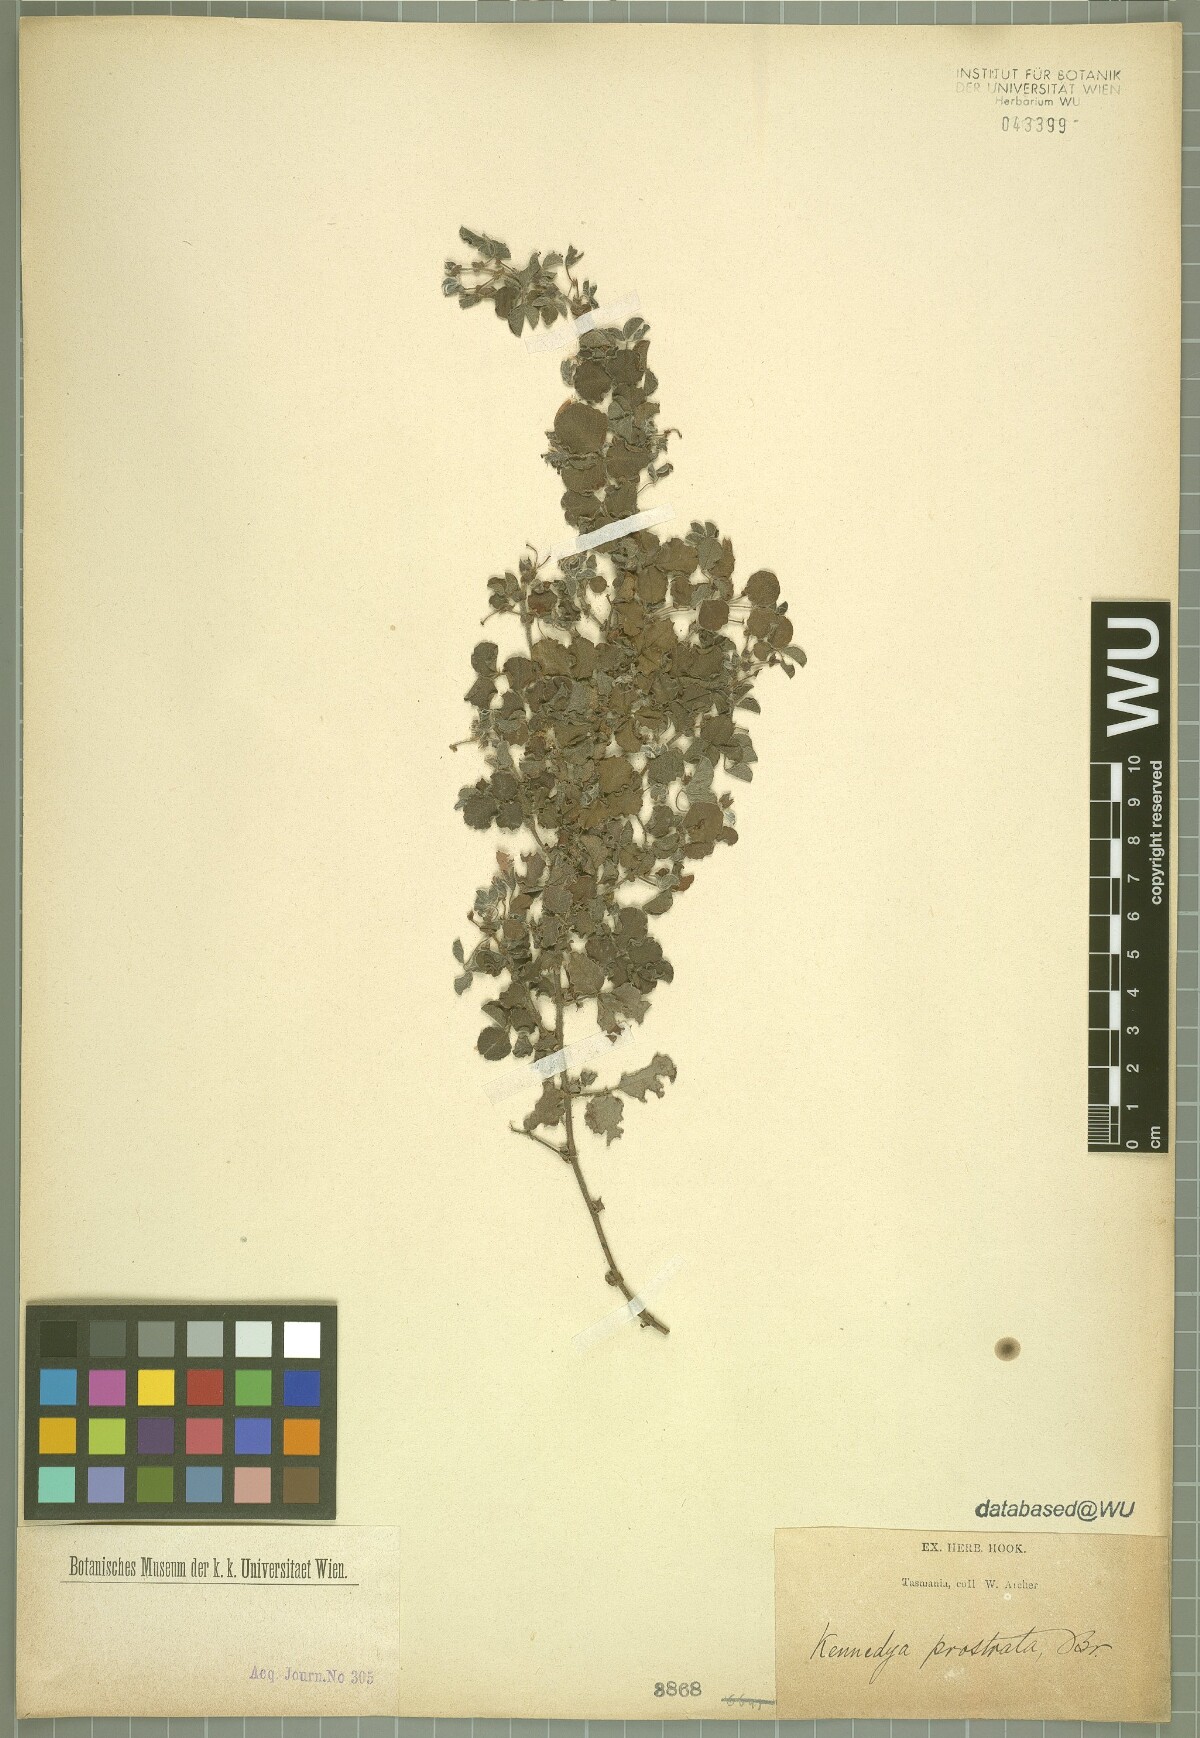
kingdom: Plantae
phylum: Tracheophyta
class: Magnoliopsida
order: Fabales
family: Fabaceae
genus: Kennedia
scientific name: Kennedia prostrata
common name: Running-postman
